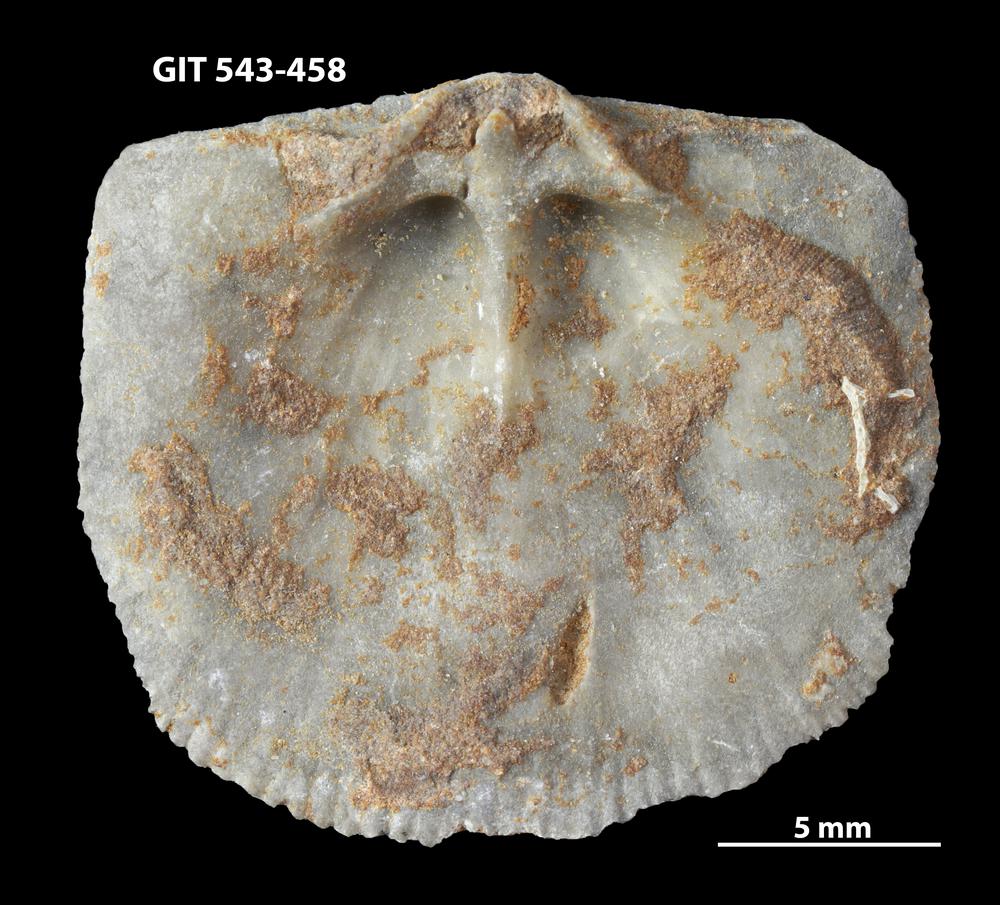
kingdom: Animalia
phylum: Brachiopoda
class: Rhynchonellata
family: Clitambonitidae
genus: Clitambonites
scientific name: Clitambonites
